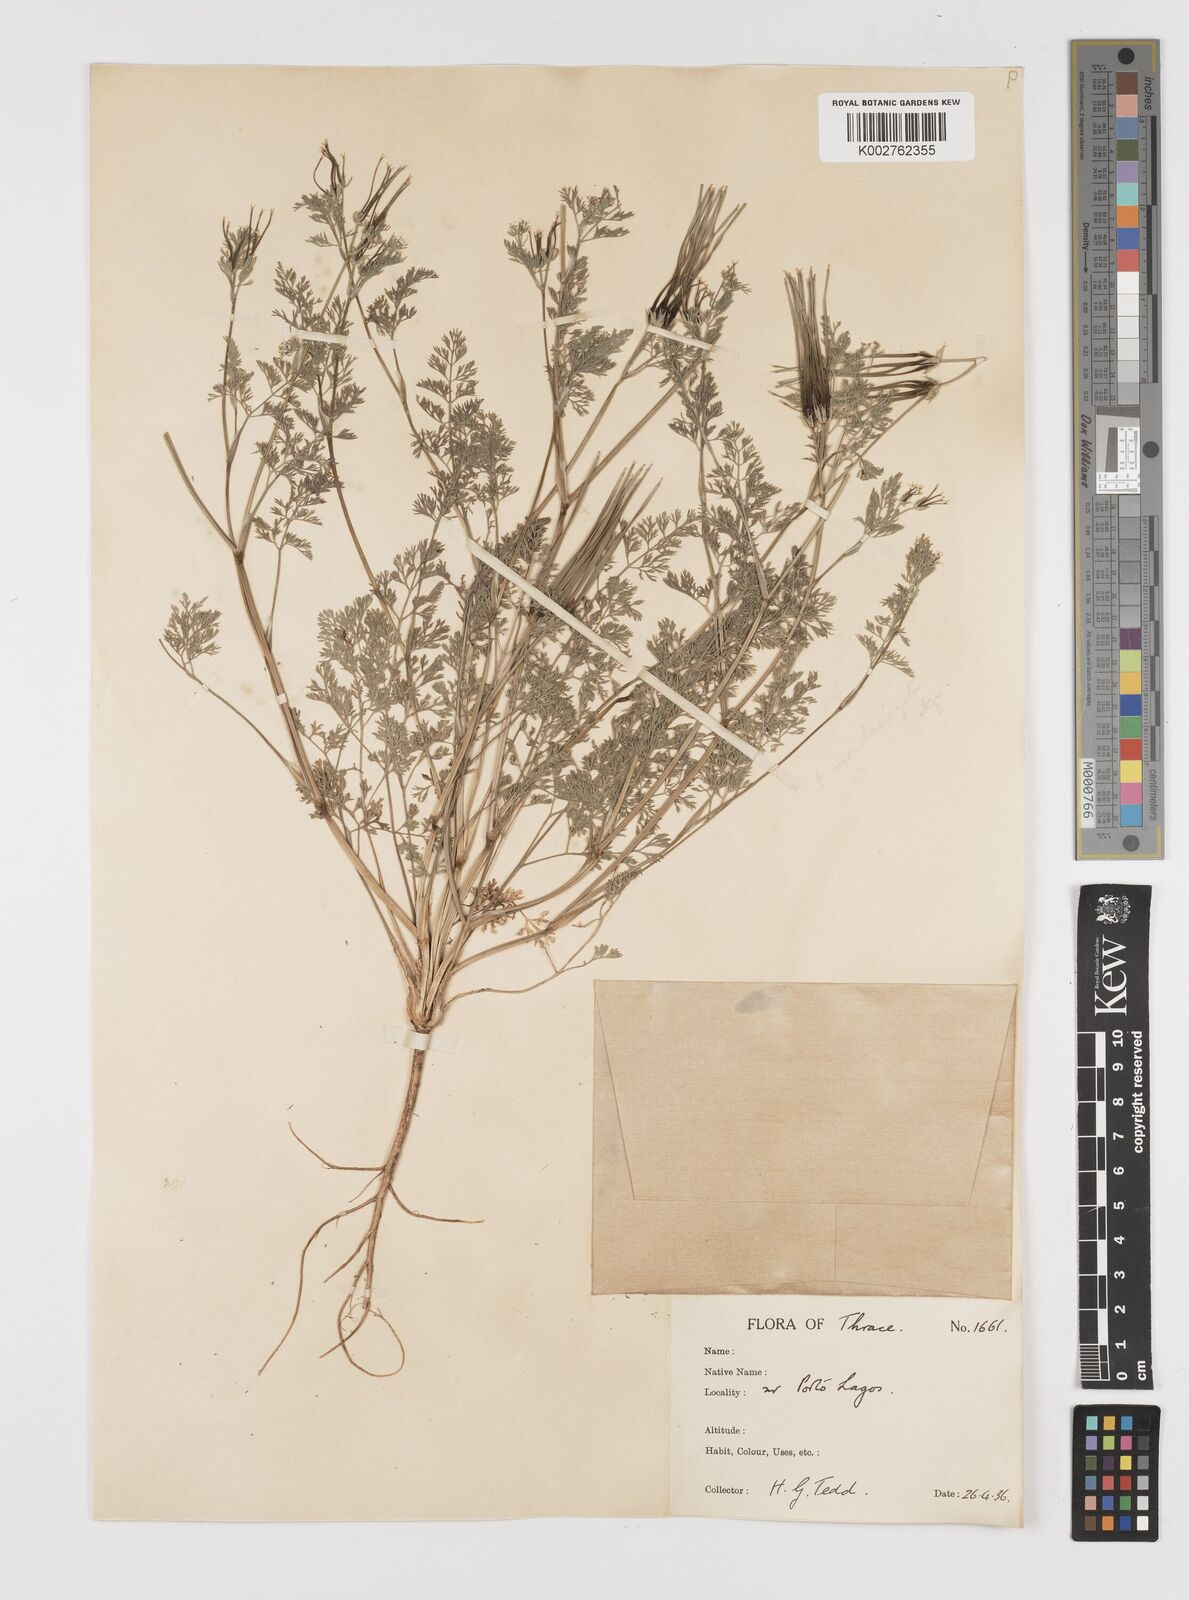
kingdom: Plantae
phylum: Tracheophyta
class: Magnoliopsida
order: Apiales
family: Apiaceae
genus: Scandix
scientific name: Scandix pecten-veneris
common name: Shepherd's-needle
